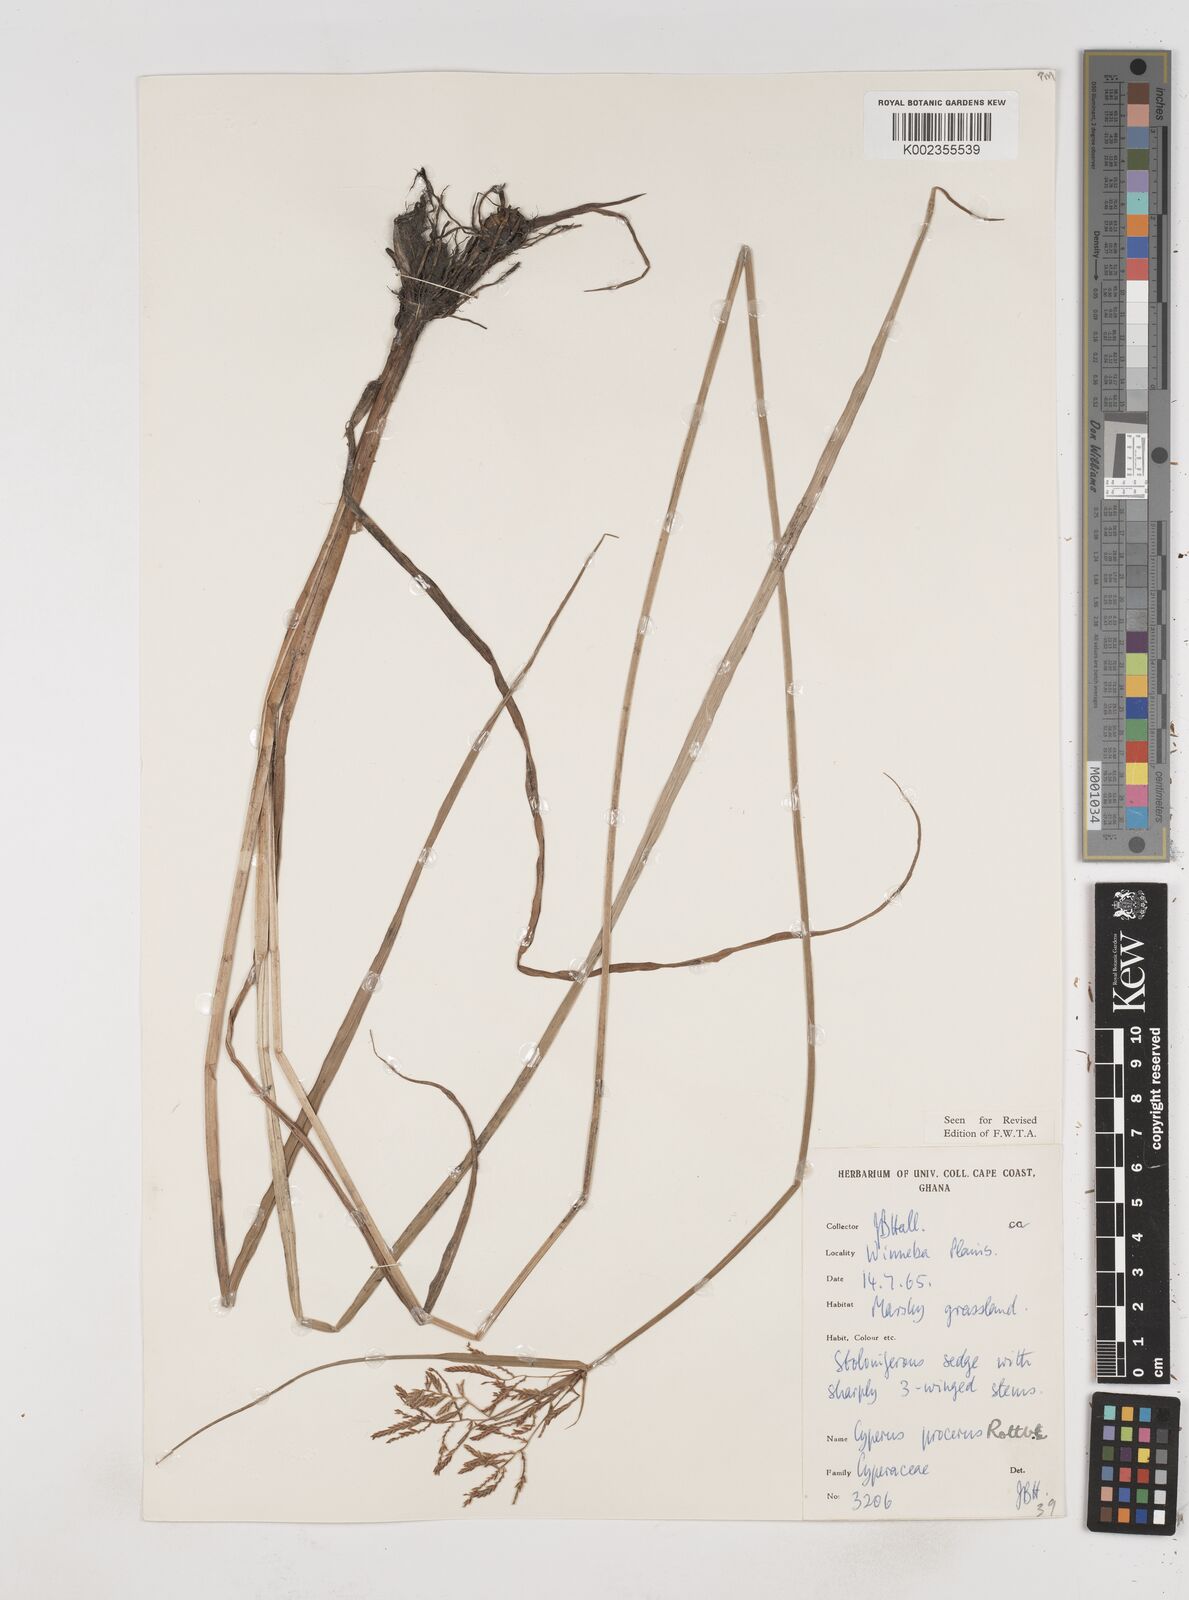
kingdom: Plantae
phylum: Tracheophyta
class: Liliopsida
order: Poales
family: Cyperaceae
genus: Cyperus
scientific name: Cyperus procerus
